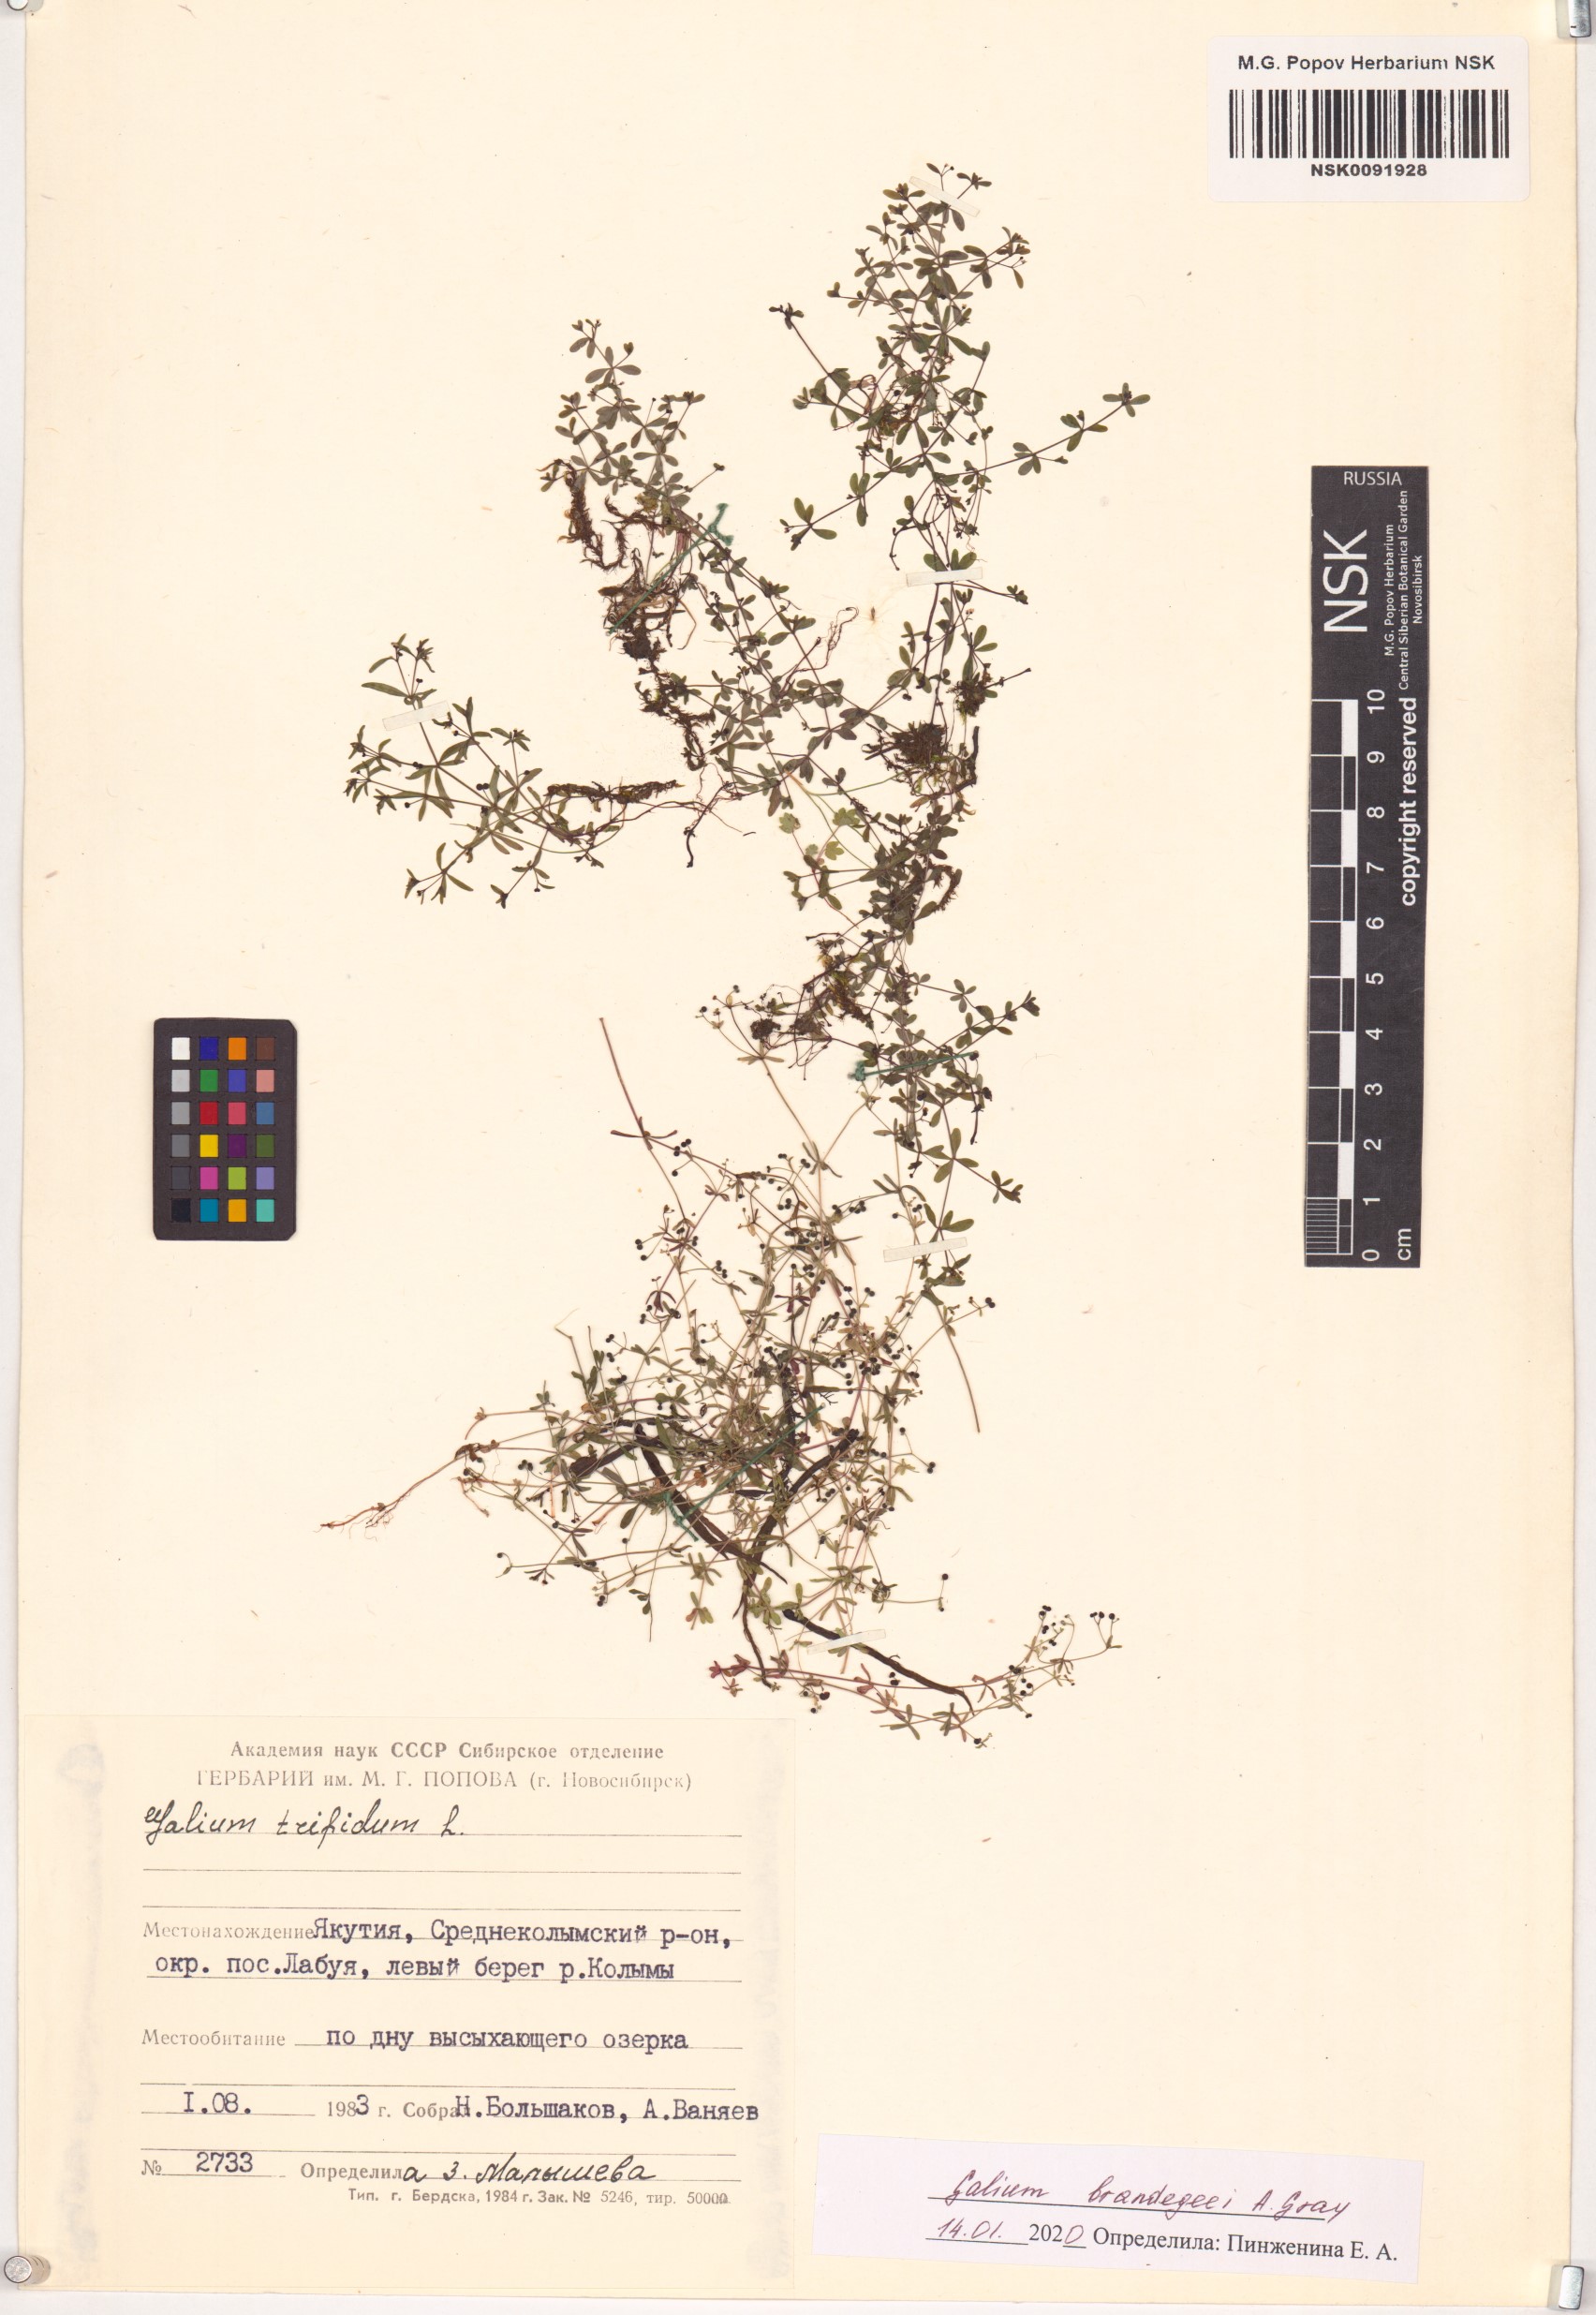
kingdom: Plantae
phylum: Tracheophyta
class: Magnoliopsida
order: Gentianales
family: Rubiaceae
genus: Galium
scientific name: Galium trifidum
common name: Small bedstraw
